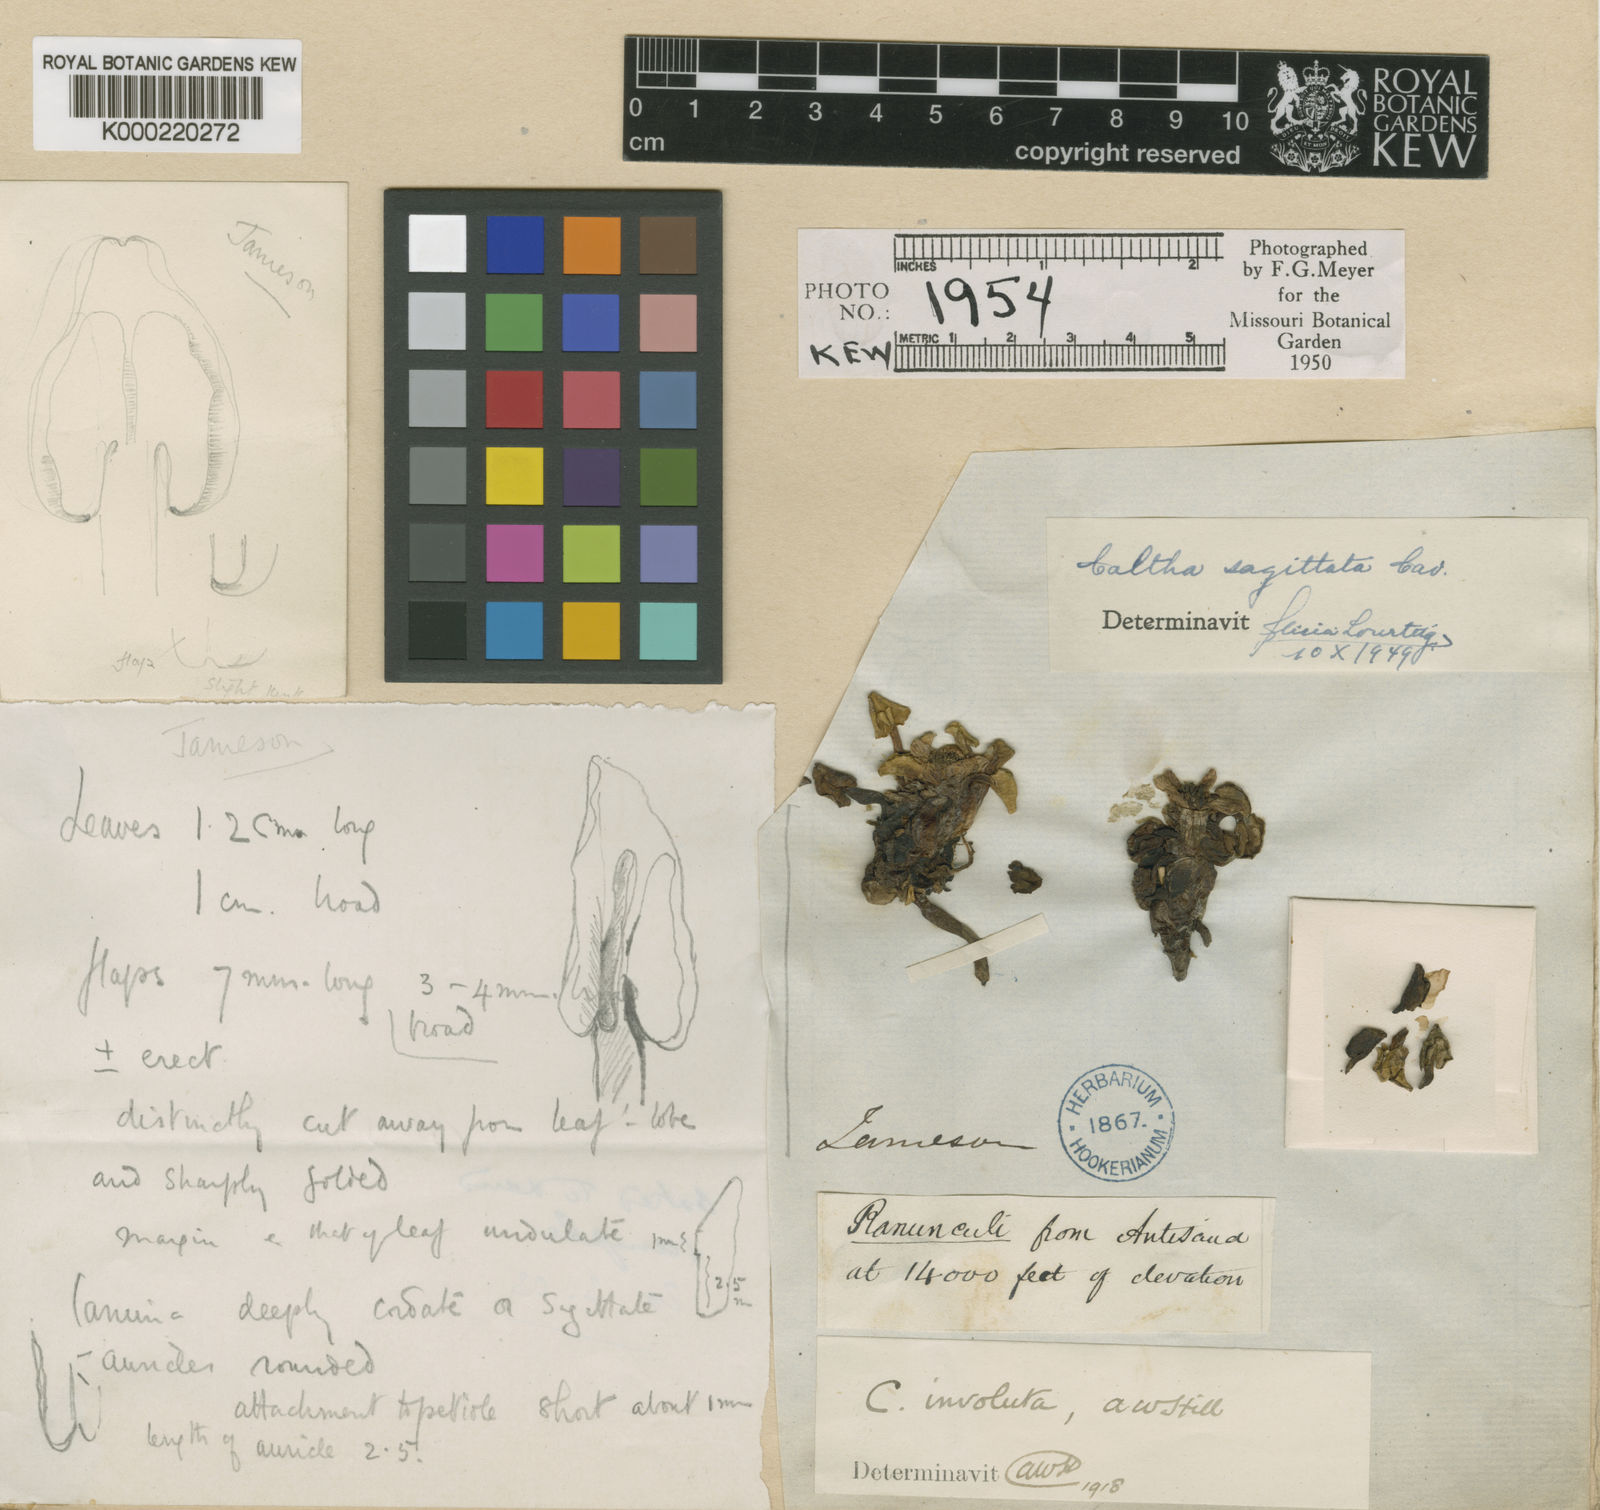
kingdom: Plantae
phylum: Tracheophyta
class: Magnoliopsida
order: Ranunculales
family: Ranunculaceae
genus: Caltha
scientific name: Caltha sagittata
